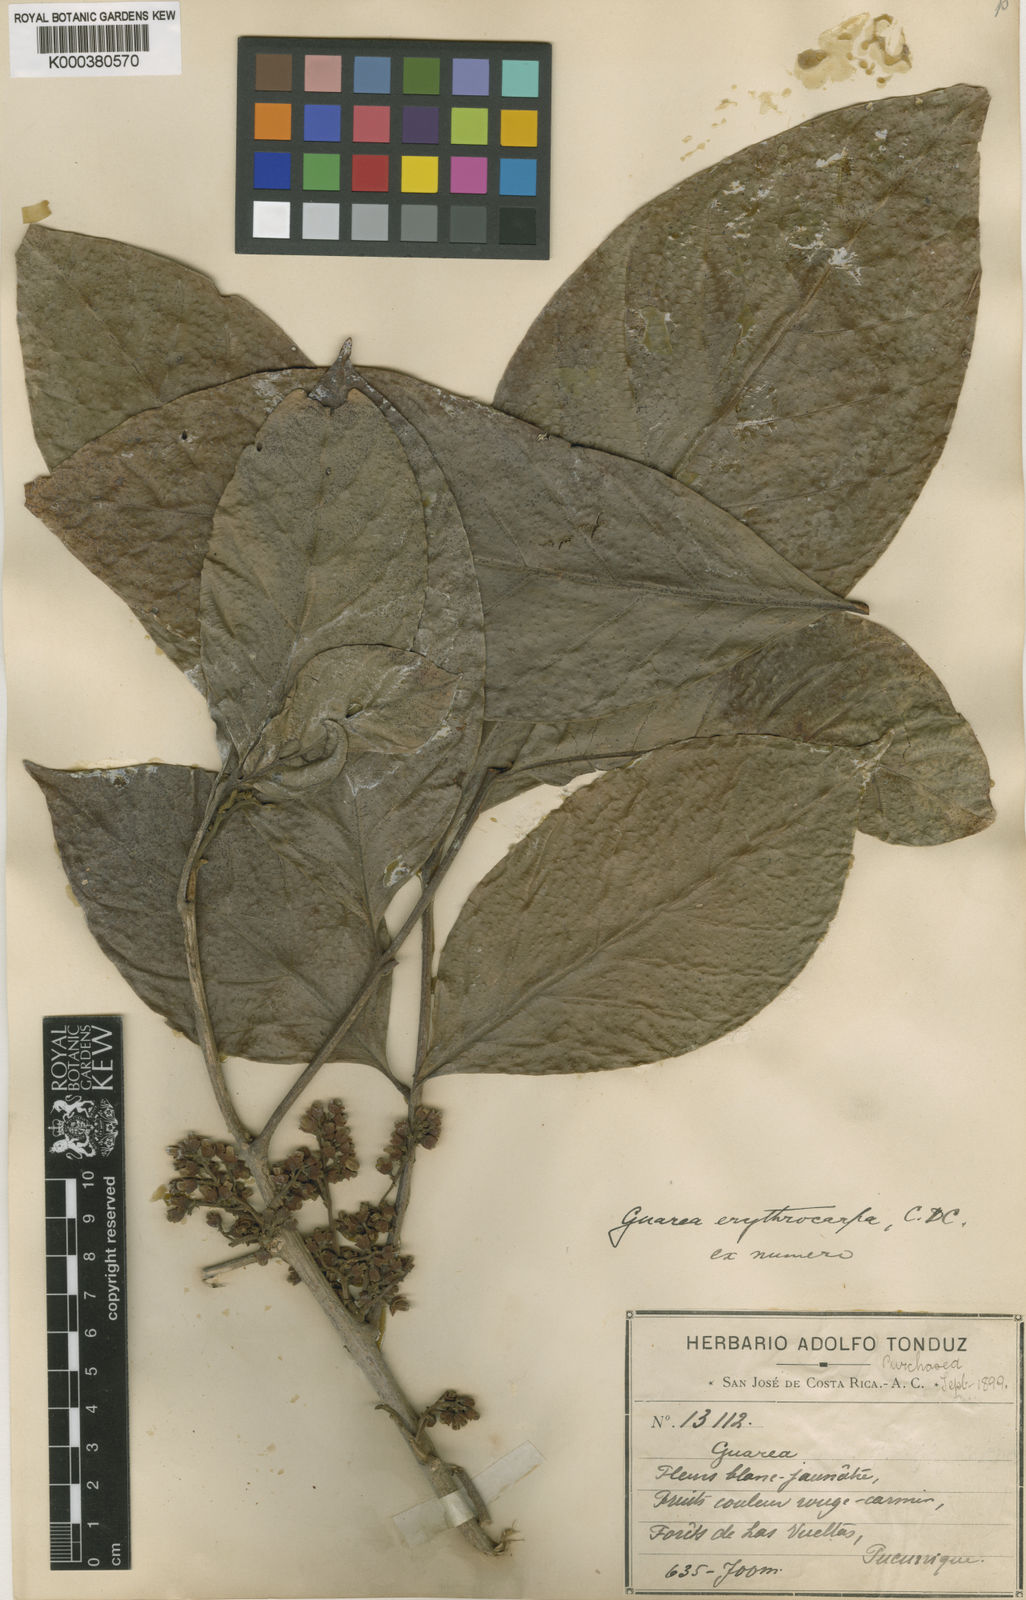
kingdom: Plantae
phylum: Tracheophyta
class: Magnoliopsida
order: Sapindales
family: Meliaceae
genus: Guarea
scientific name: Guarea glabra
